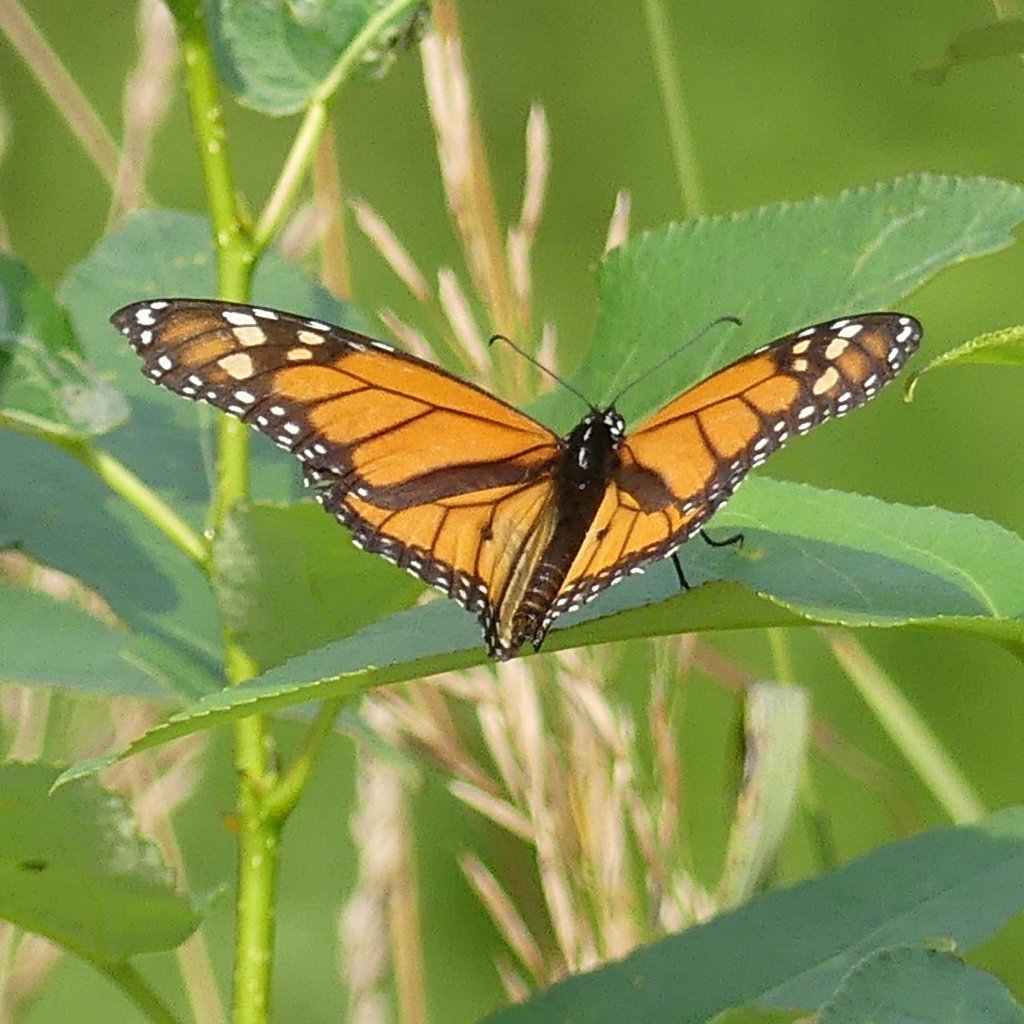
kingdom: Animalia
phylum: Arthropoda
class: Insecta
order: Lepidoptera
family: Nymphalidae
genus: Danaus
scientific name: Danaus plexippus
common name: Monarch
